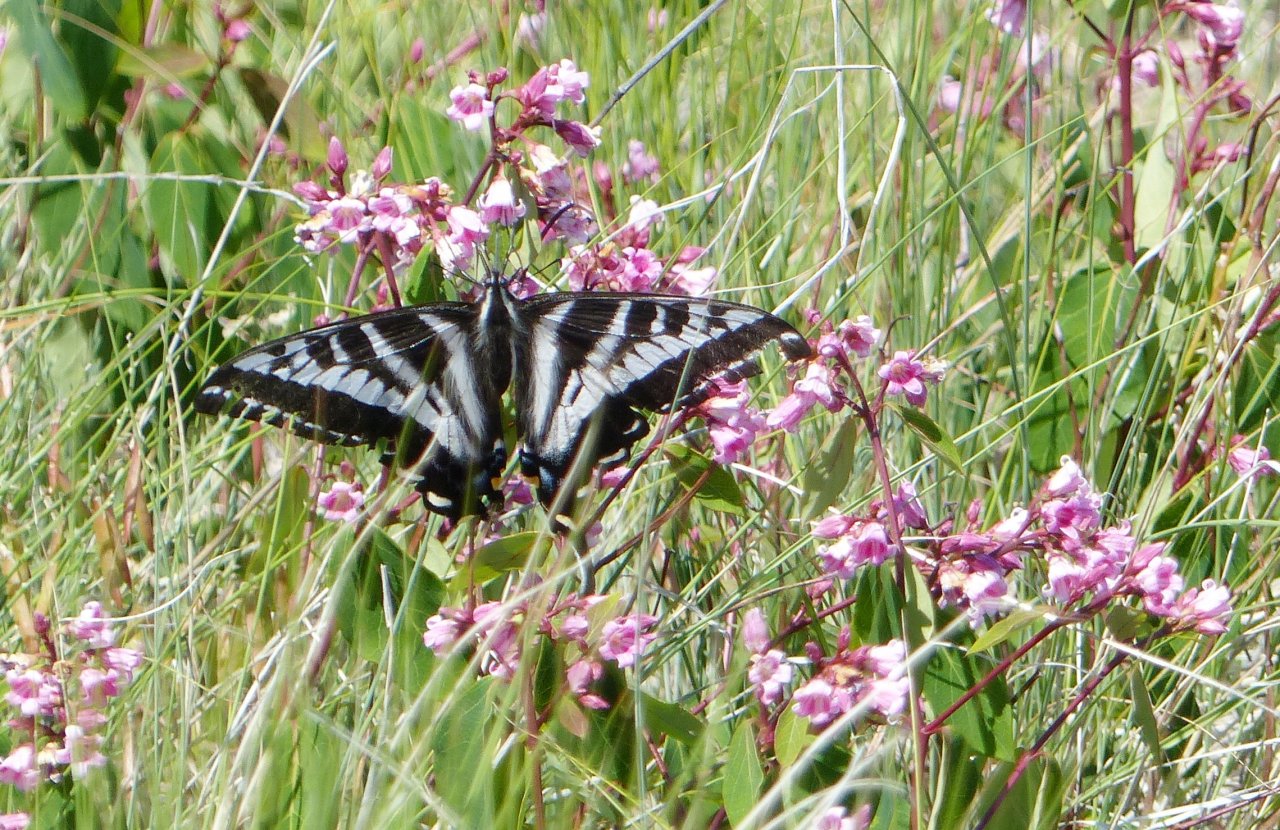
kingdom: Animalia
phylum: Arthropoda
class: Insecta
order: Lepidoptera
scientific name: Lepidoptera
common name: Butterflies
